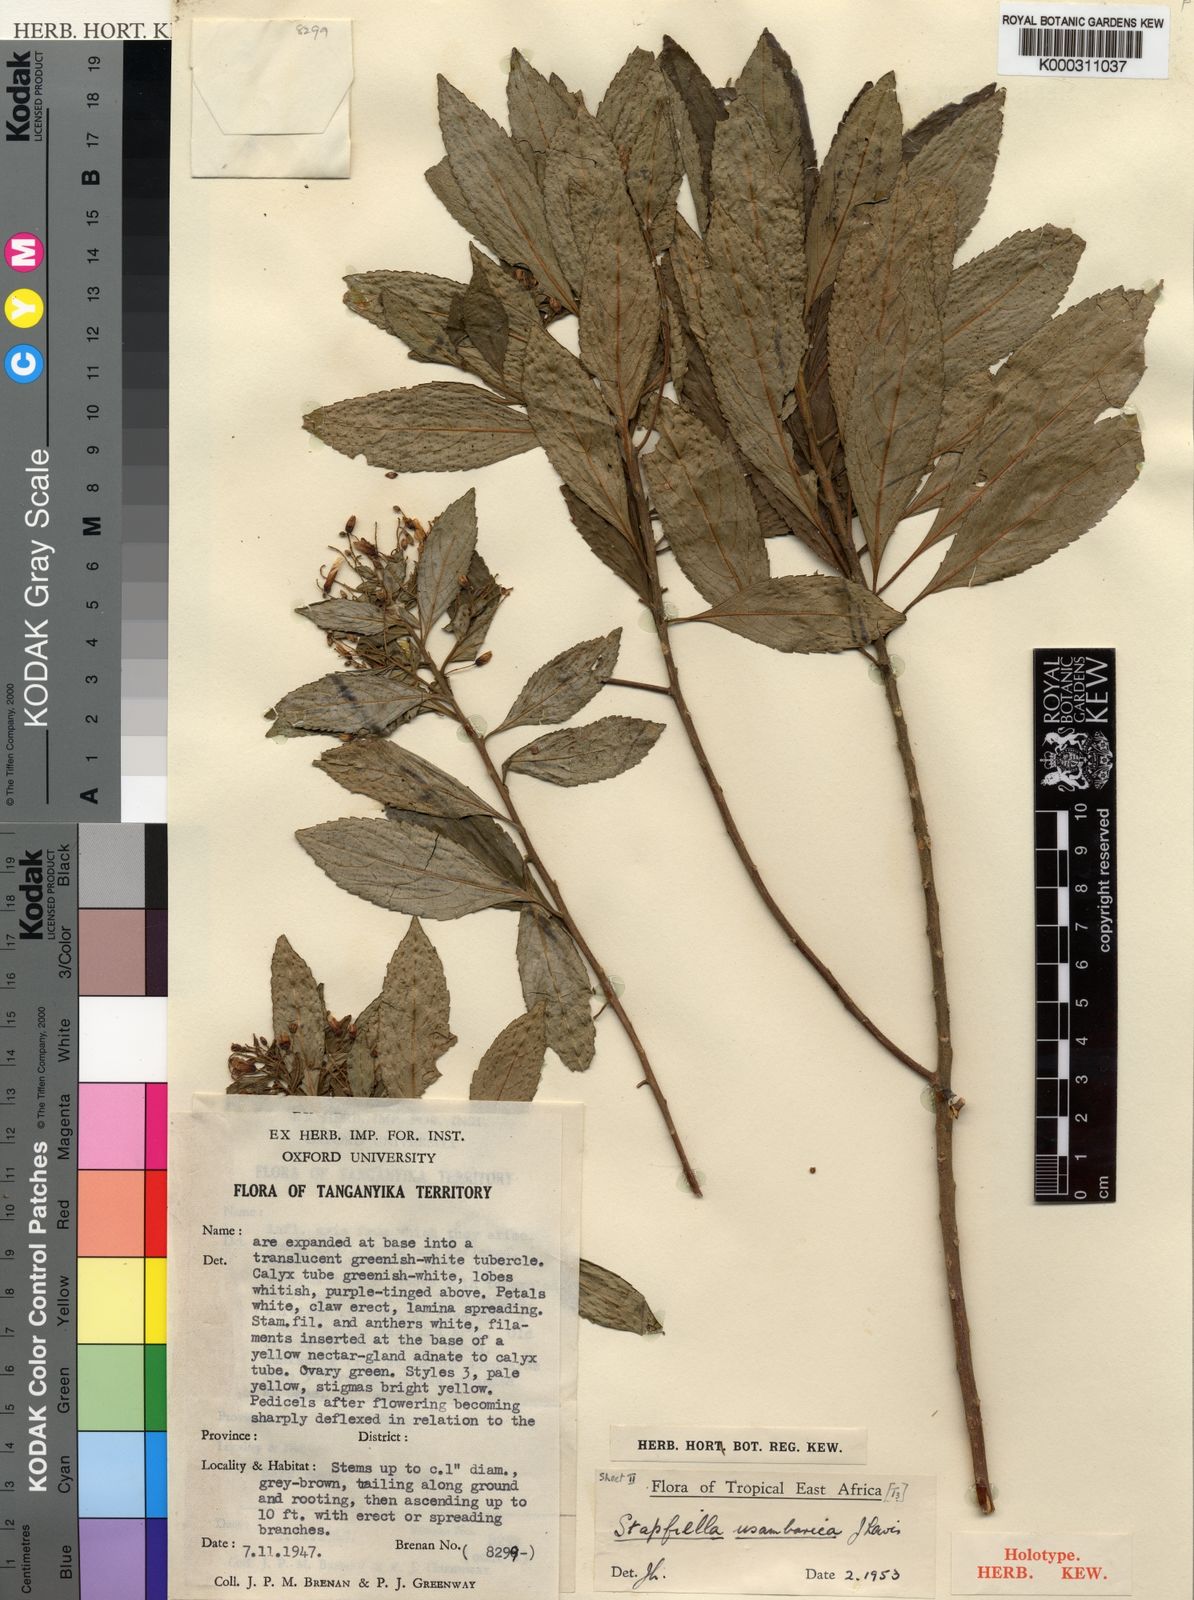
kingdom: Plantae
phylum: Tracheophyta
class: Magnoliopsida
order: Malpighiales
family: Turneraceae
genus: Stapfiella
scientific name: Stapfiella usambarica
